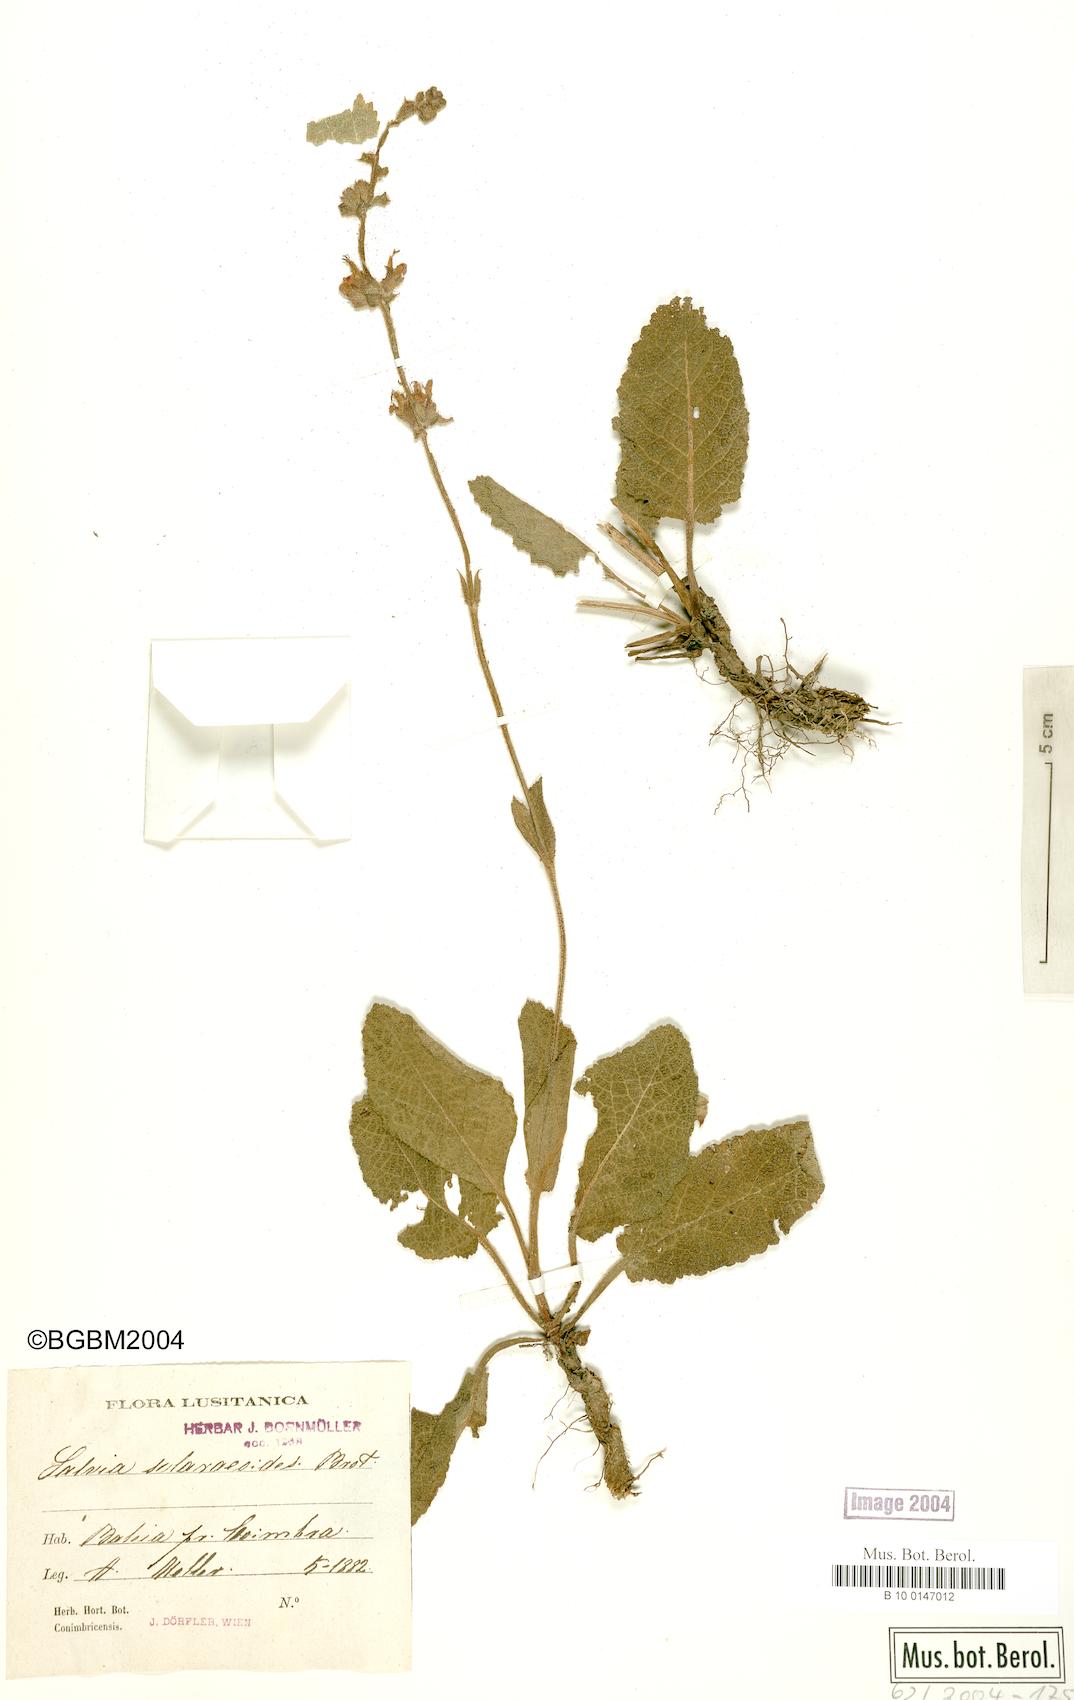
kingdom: Plantae
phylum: Tracheophyta
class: Magnoliopsida
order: Lamiales
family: Lamiaceae
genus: Salvia
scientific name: Salvia sclareoides
